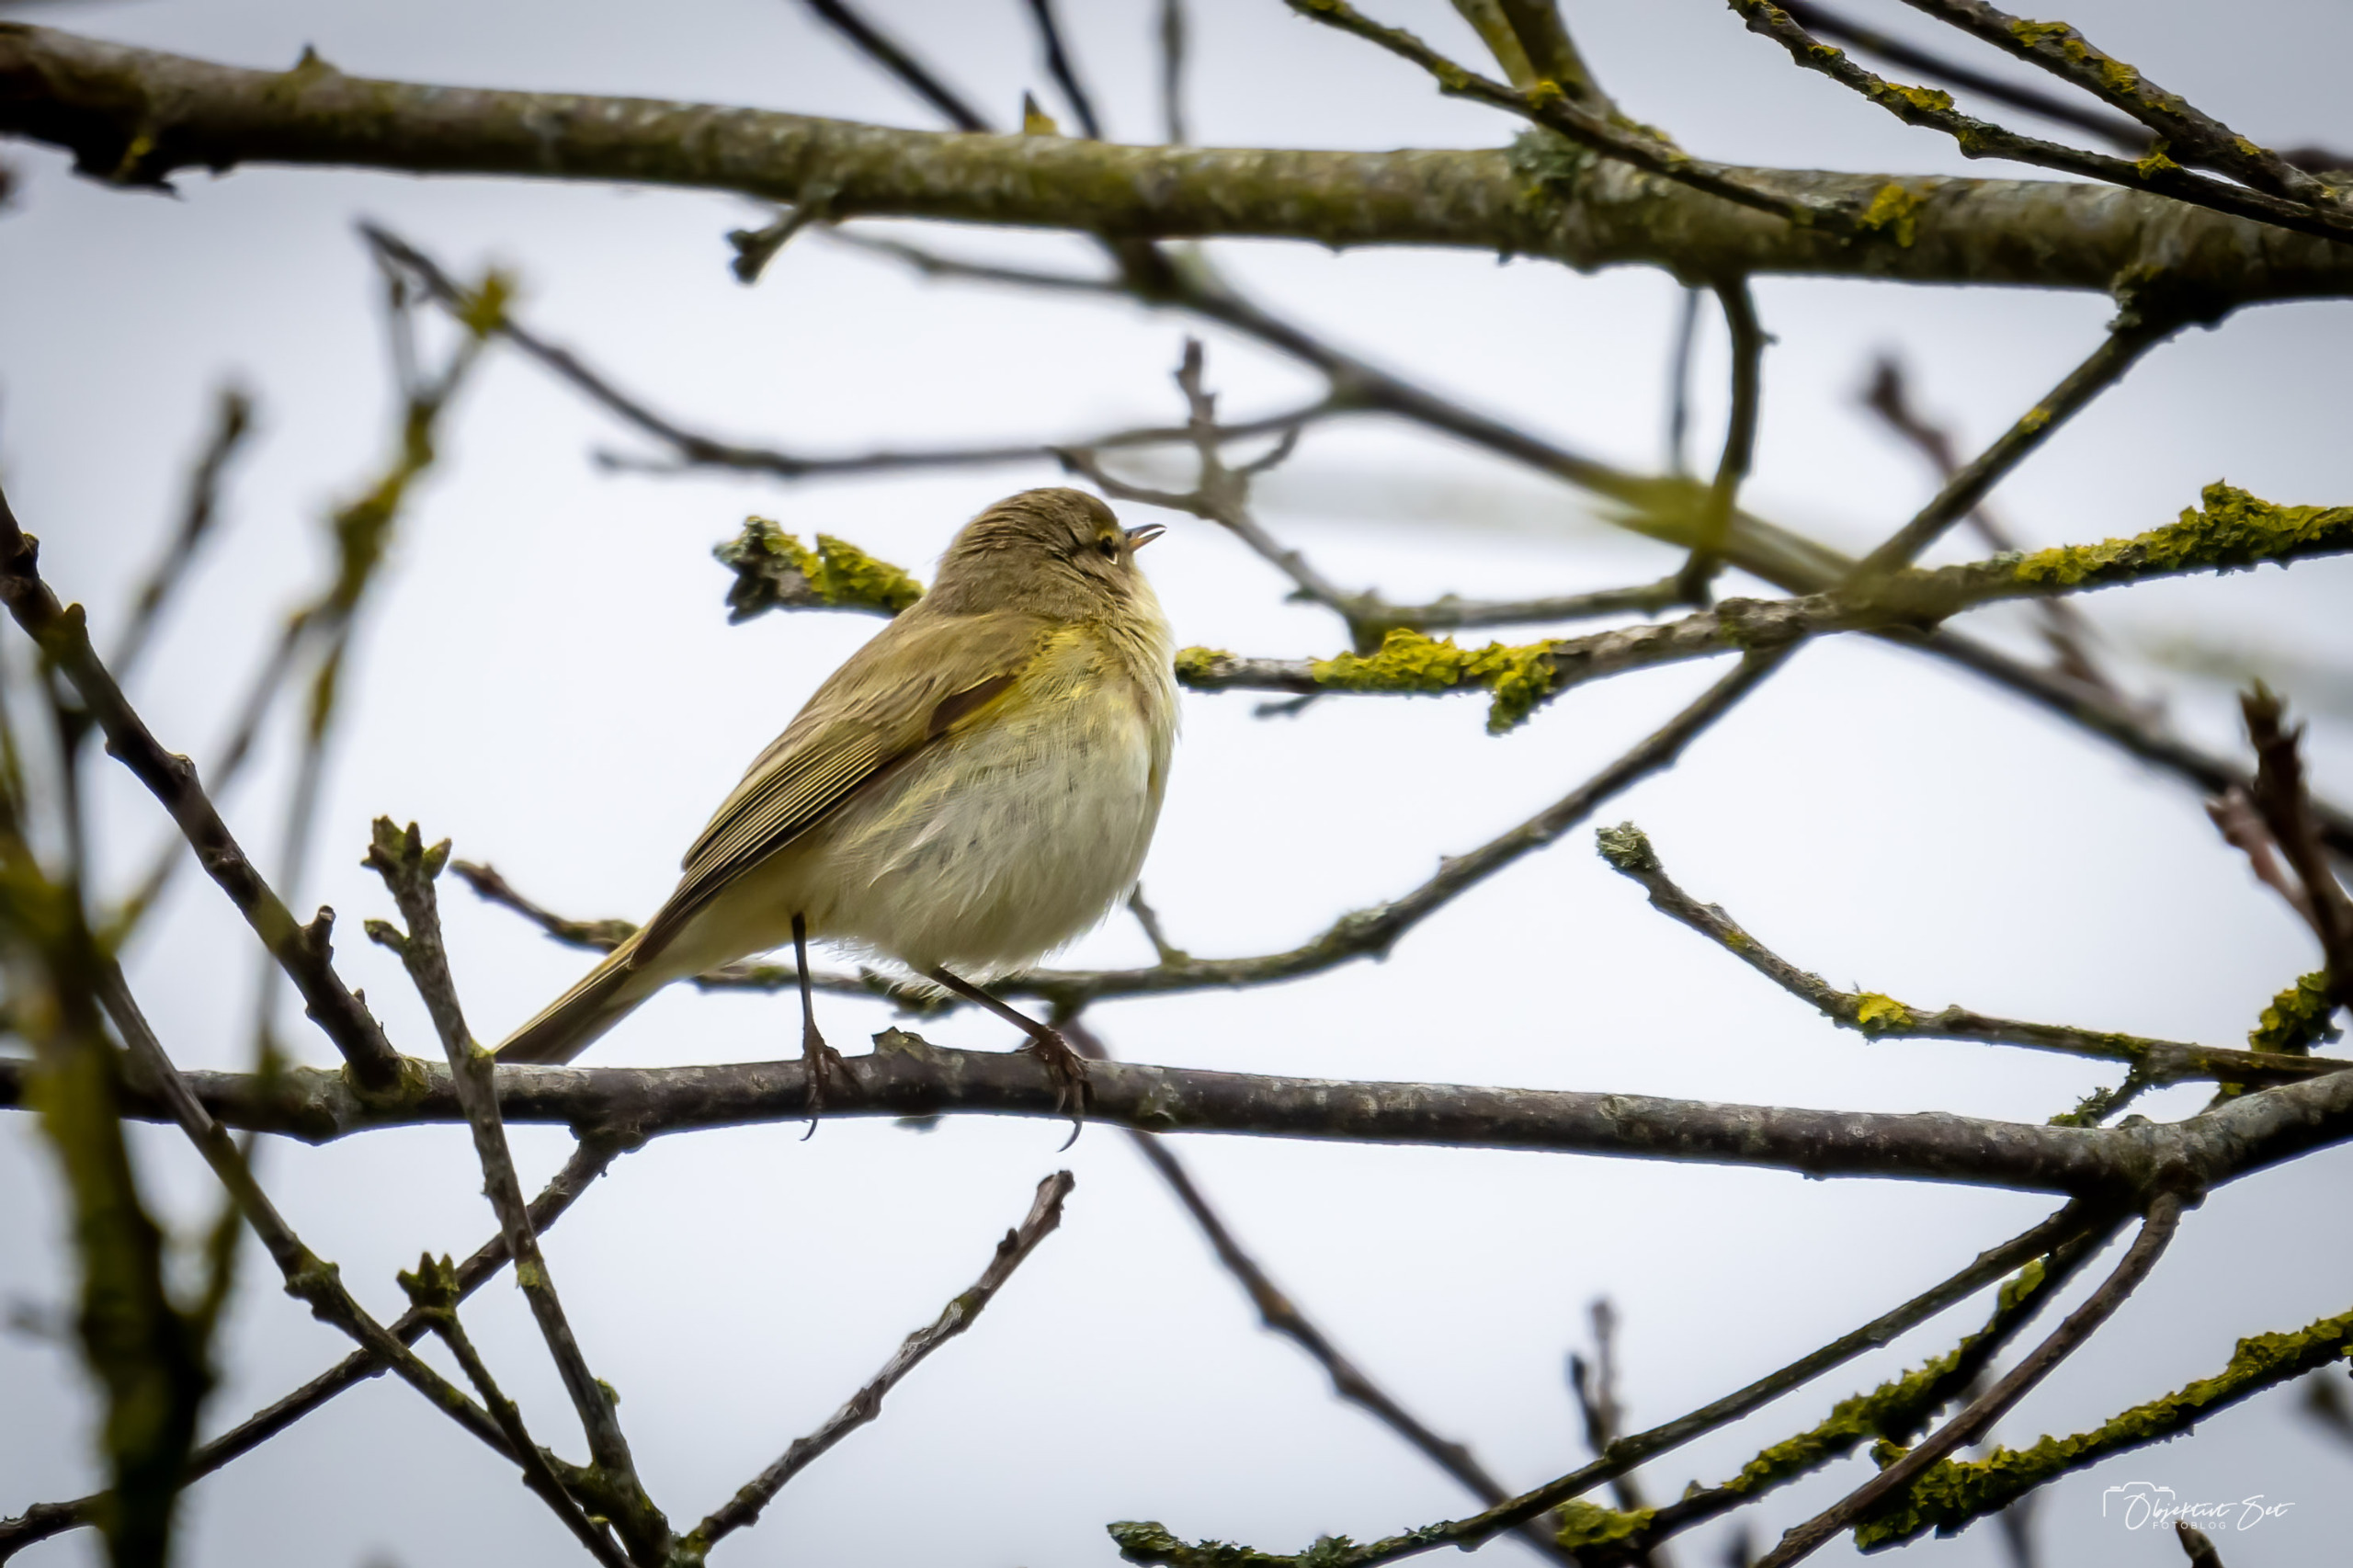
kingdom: Animalia
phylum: Chordata
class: Aves
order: Passeriformes
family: Phylloscopidae
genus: Phylloscopus
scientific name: Phylloscopus collybita
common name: Gransanger
